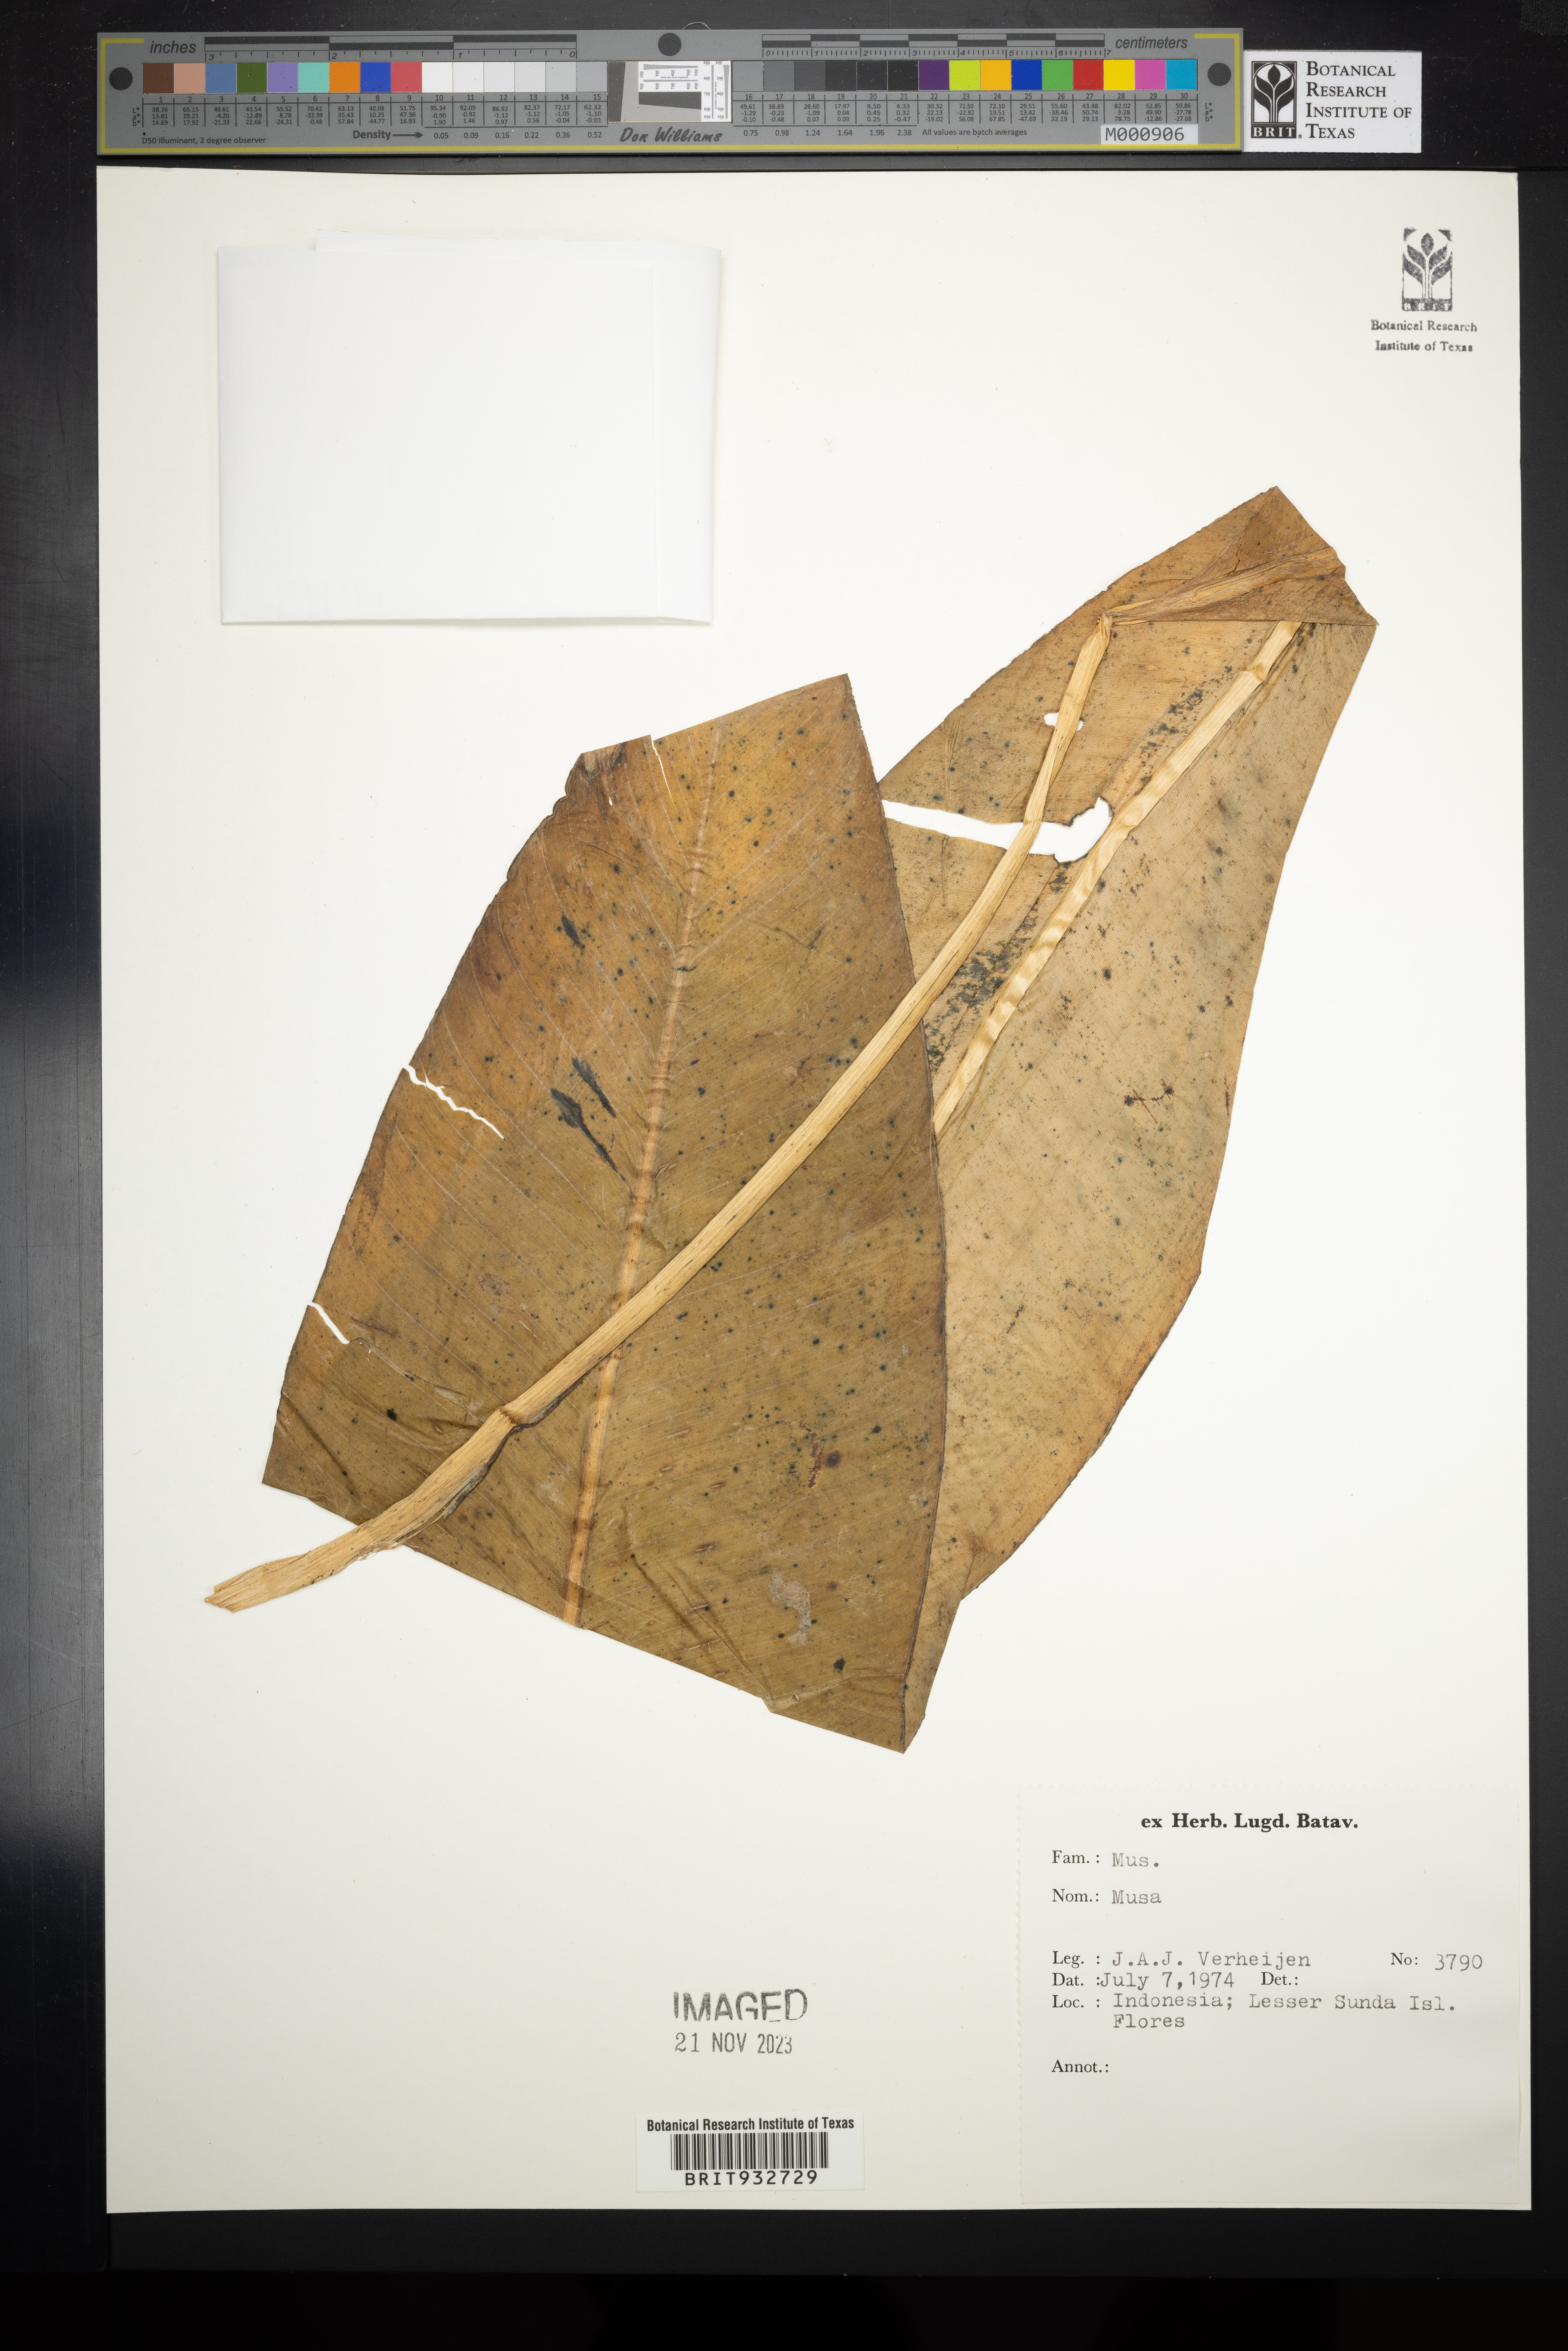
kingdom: Plantae
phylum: Tracheophyta
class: Liliopsida
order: Zingiberales
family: Musaceae
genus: Musa
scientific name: Musa
